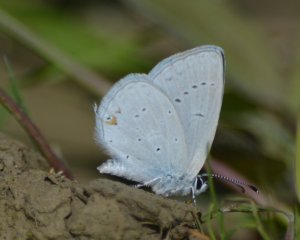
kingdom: Animalia
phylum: Arthropoda
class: Insecta
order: Lepidoptera
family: Lycaenidae
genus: Elkalyce
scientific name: Elkalyce amyntula
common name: Western Tailed-Blue
